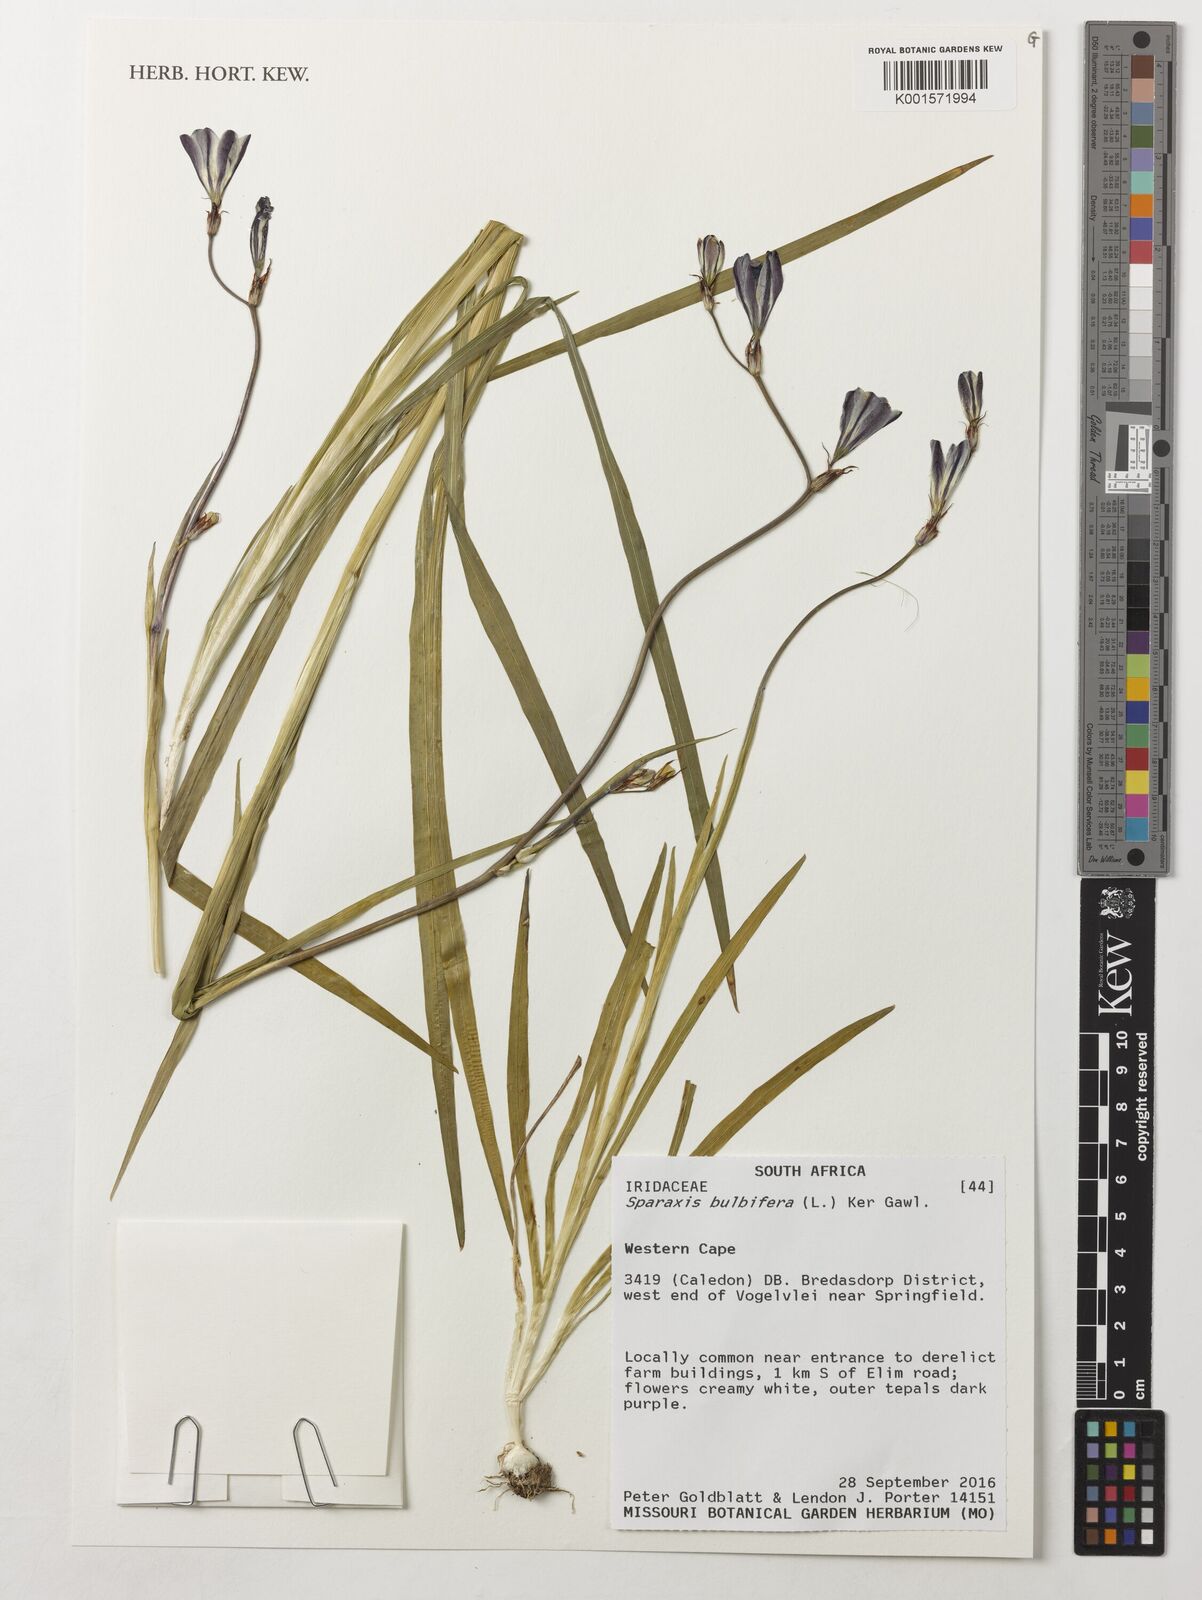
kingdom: Plantae
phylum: Tracheophyta
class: Liliopsida
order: Asparagales
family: Iridaceae
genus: Sparaxis
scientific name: Sparaxis bulbifera
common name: Harlequin-flower
